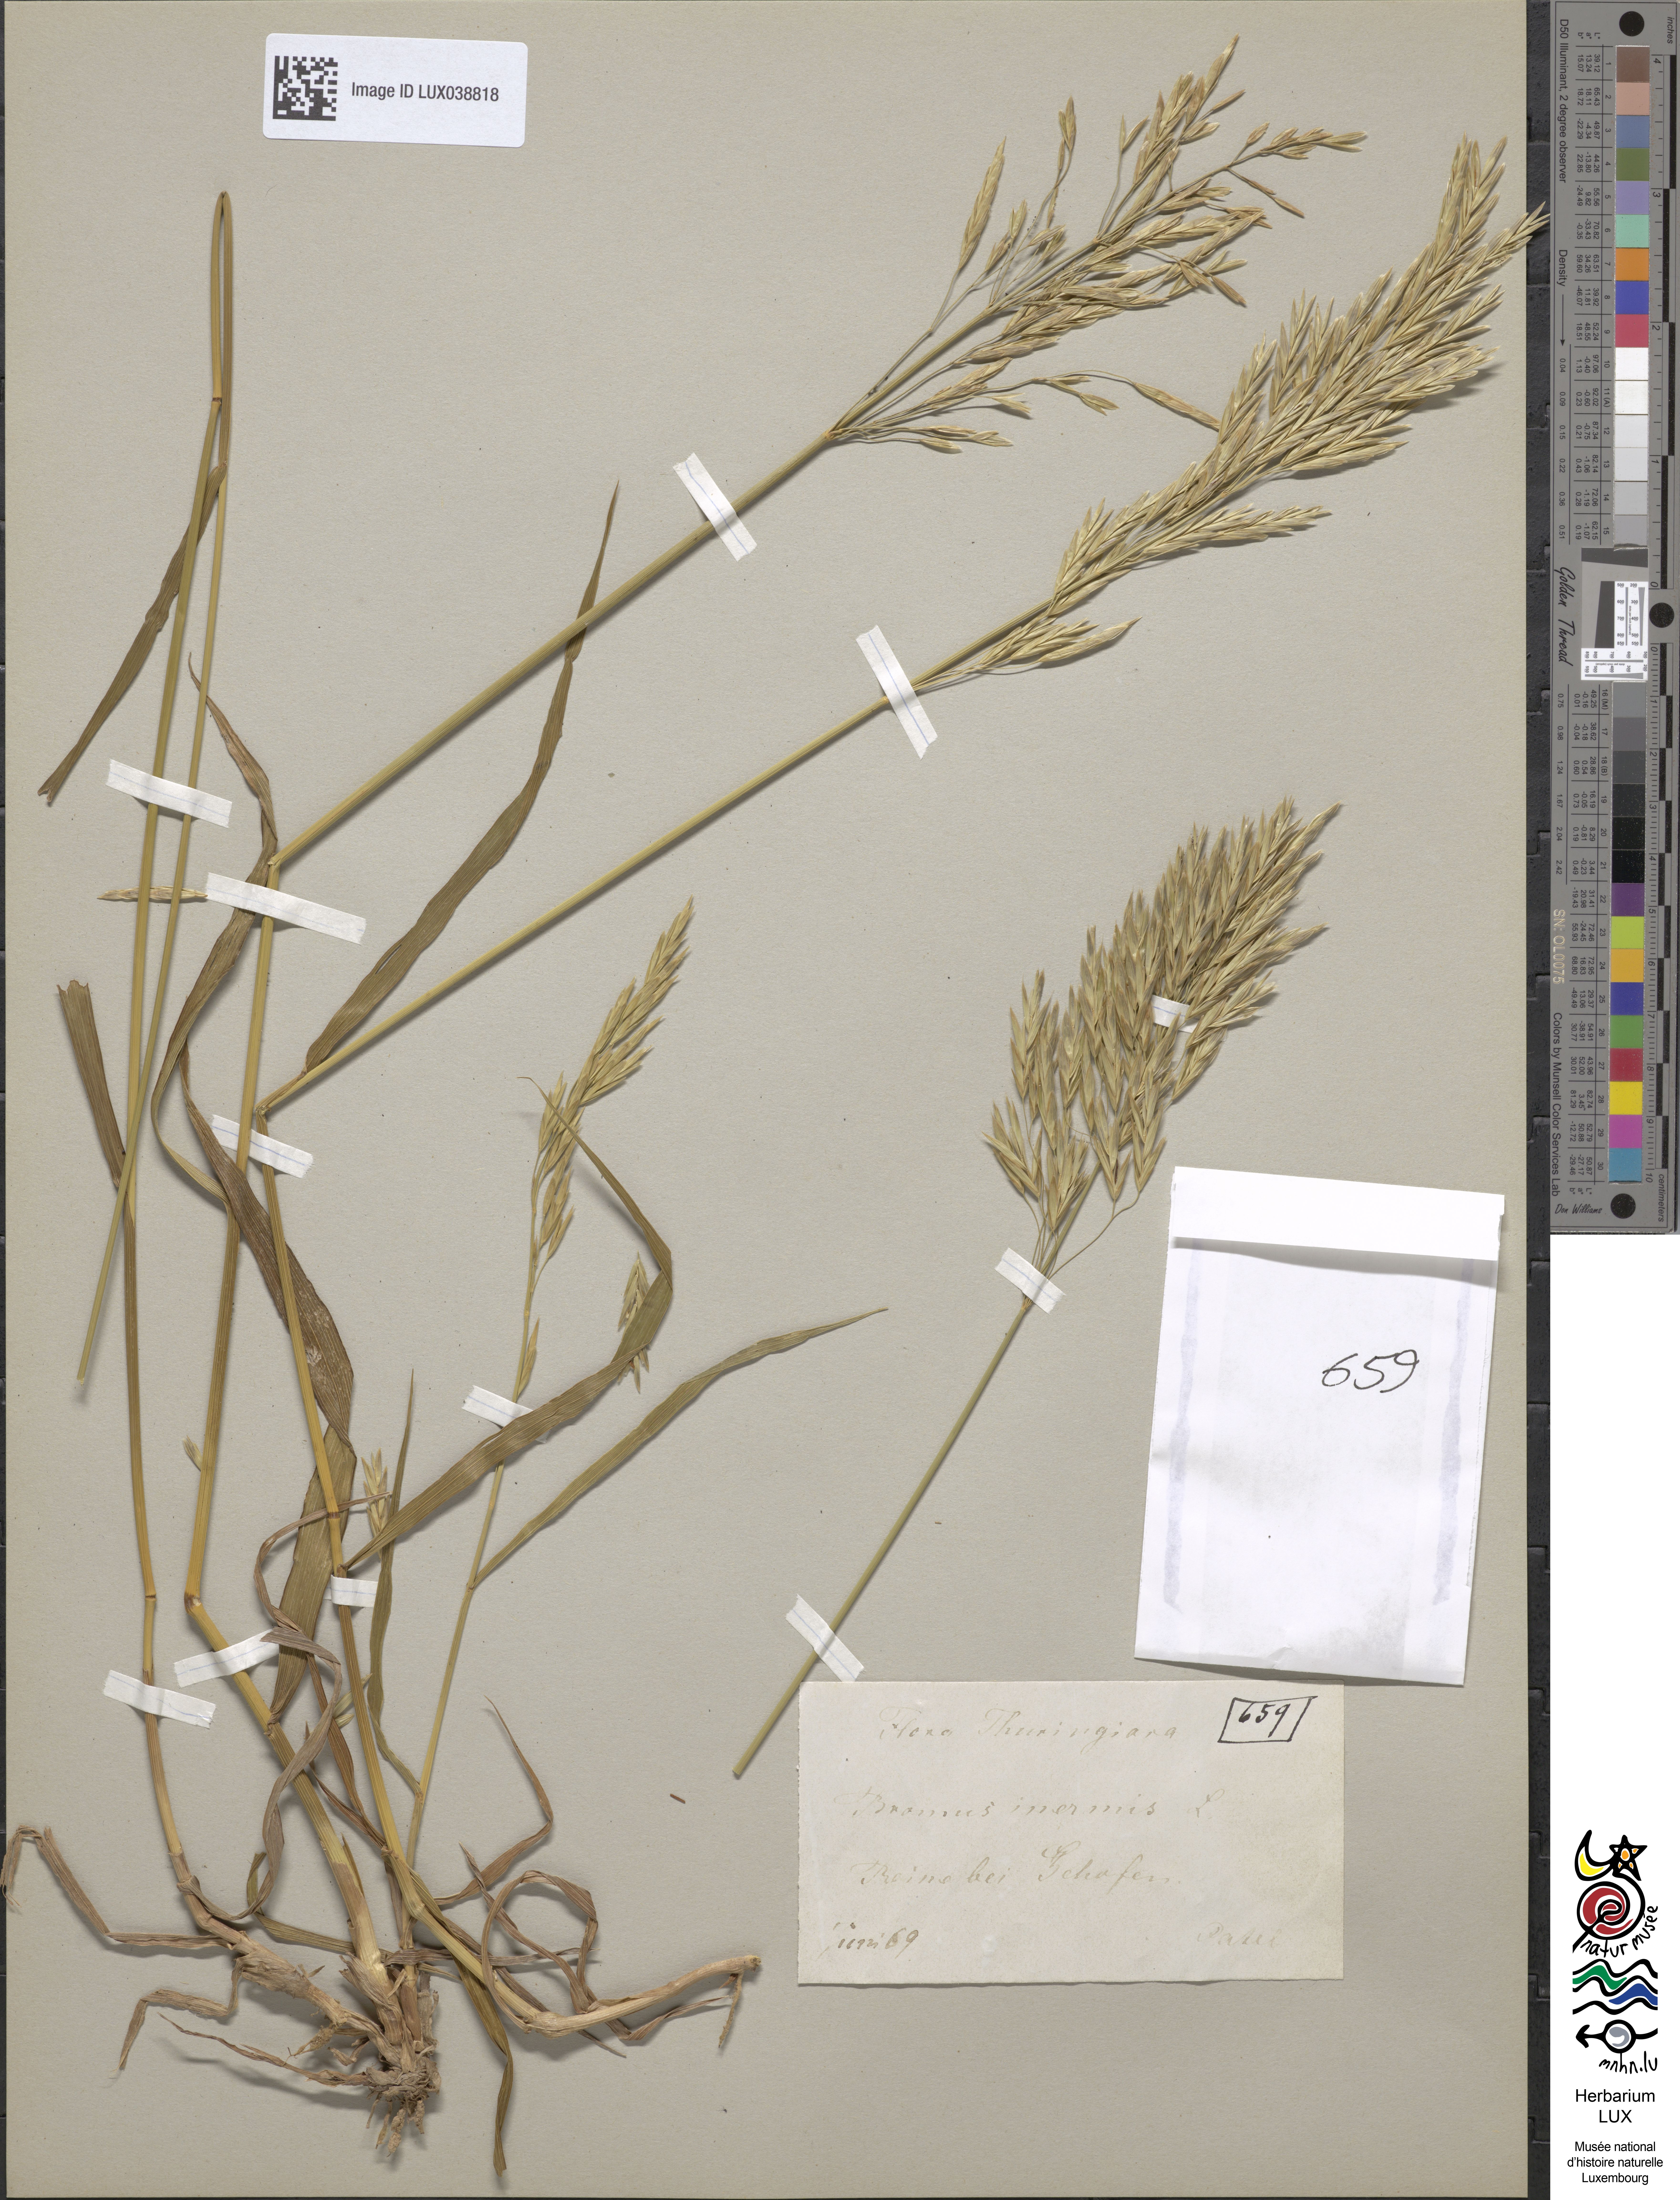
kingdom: Plantae
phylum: Tracheophyta
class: Liliopsida
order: Poales
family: Poaceae
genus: Bromus
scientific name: Bromus inermis
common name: Smooth brome
